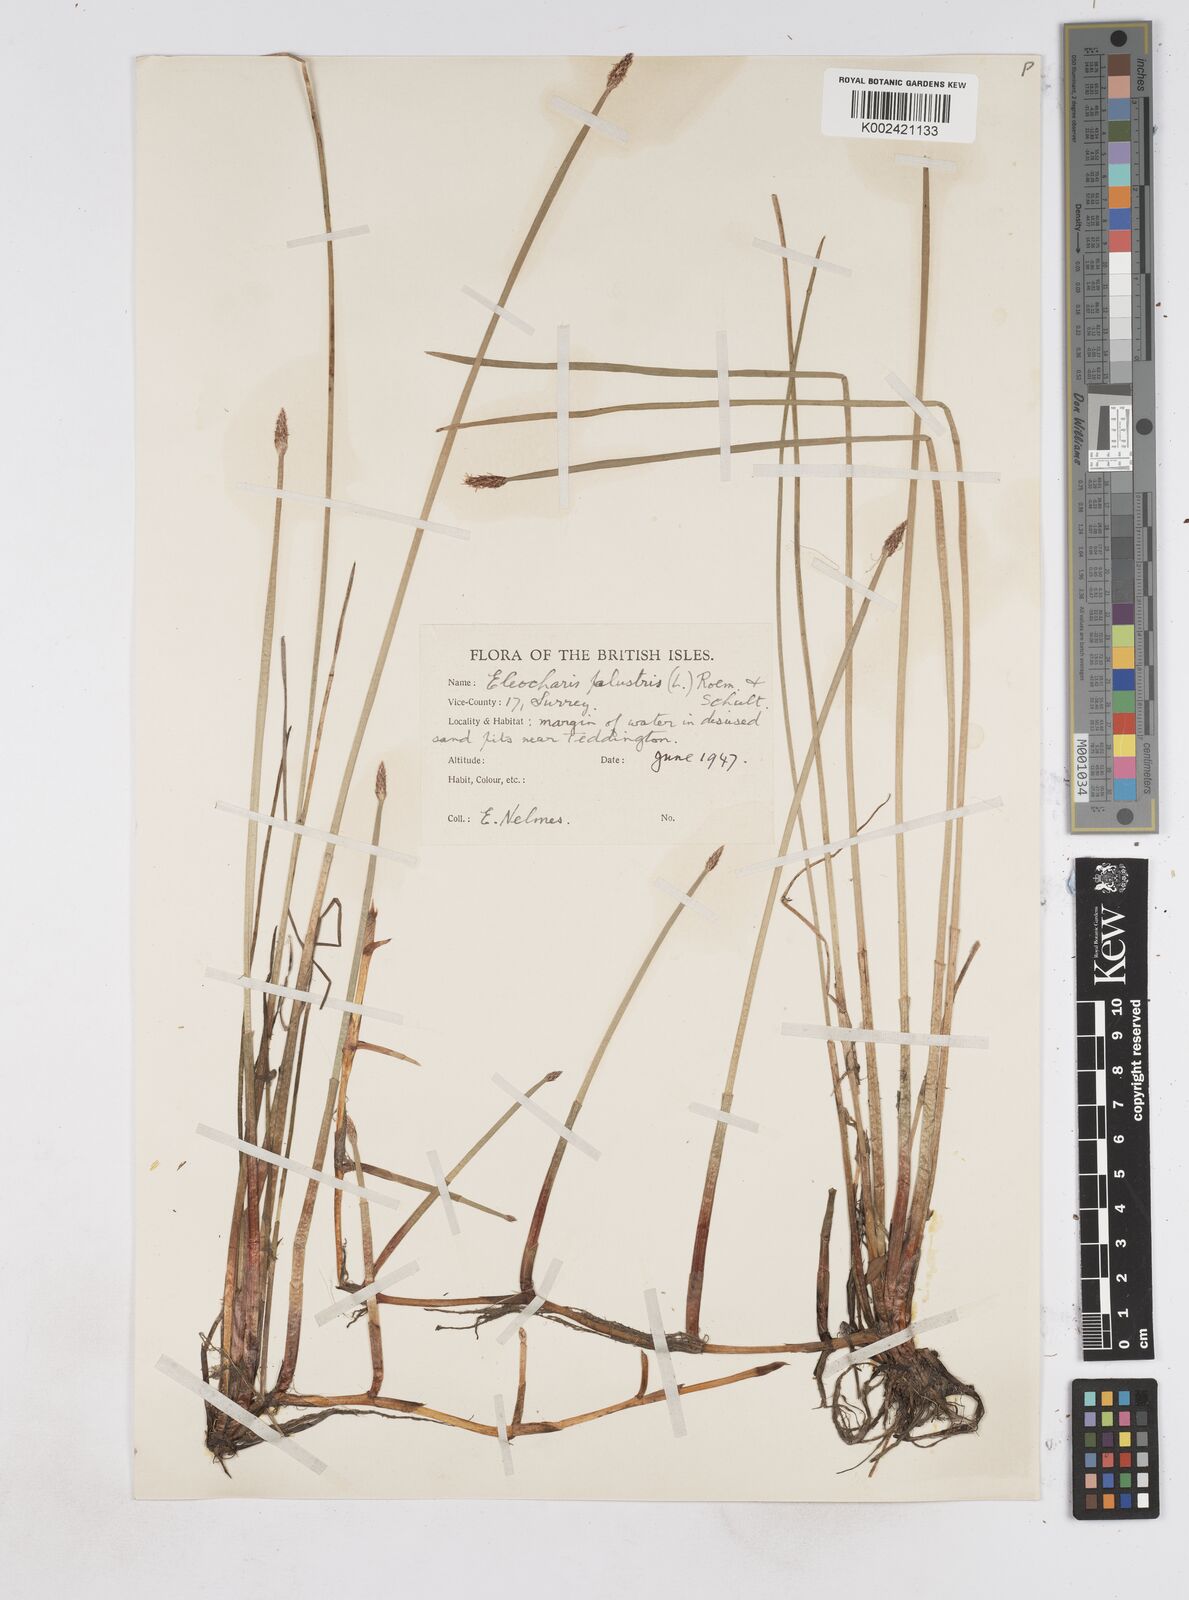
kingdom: Plantae
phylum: Tracheophyta
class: Liliopsida
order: Poales
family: Cyperaceae
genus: Eleocharis
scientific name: Eleocharis palustris
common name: Common spike-rush
